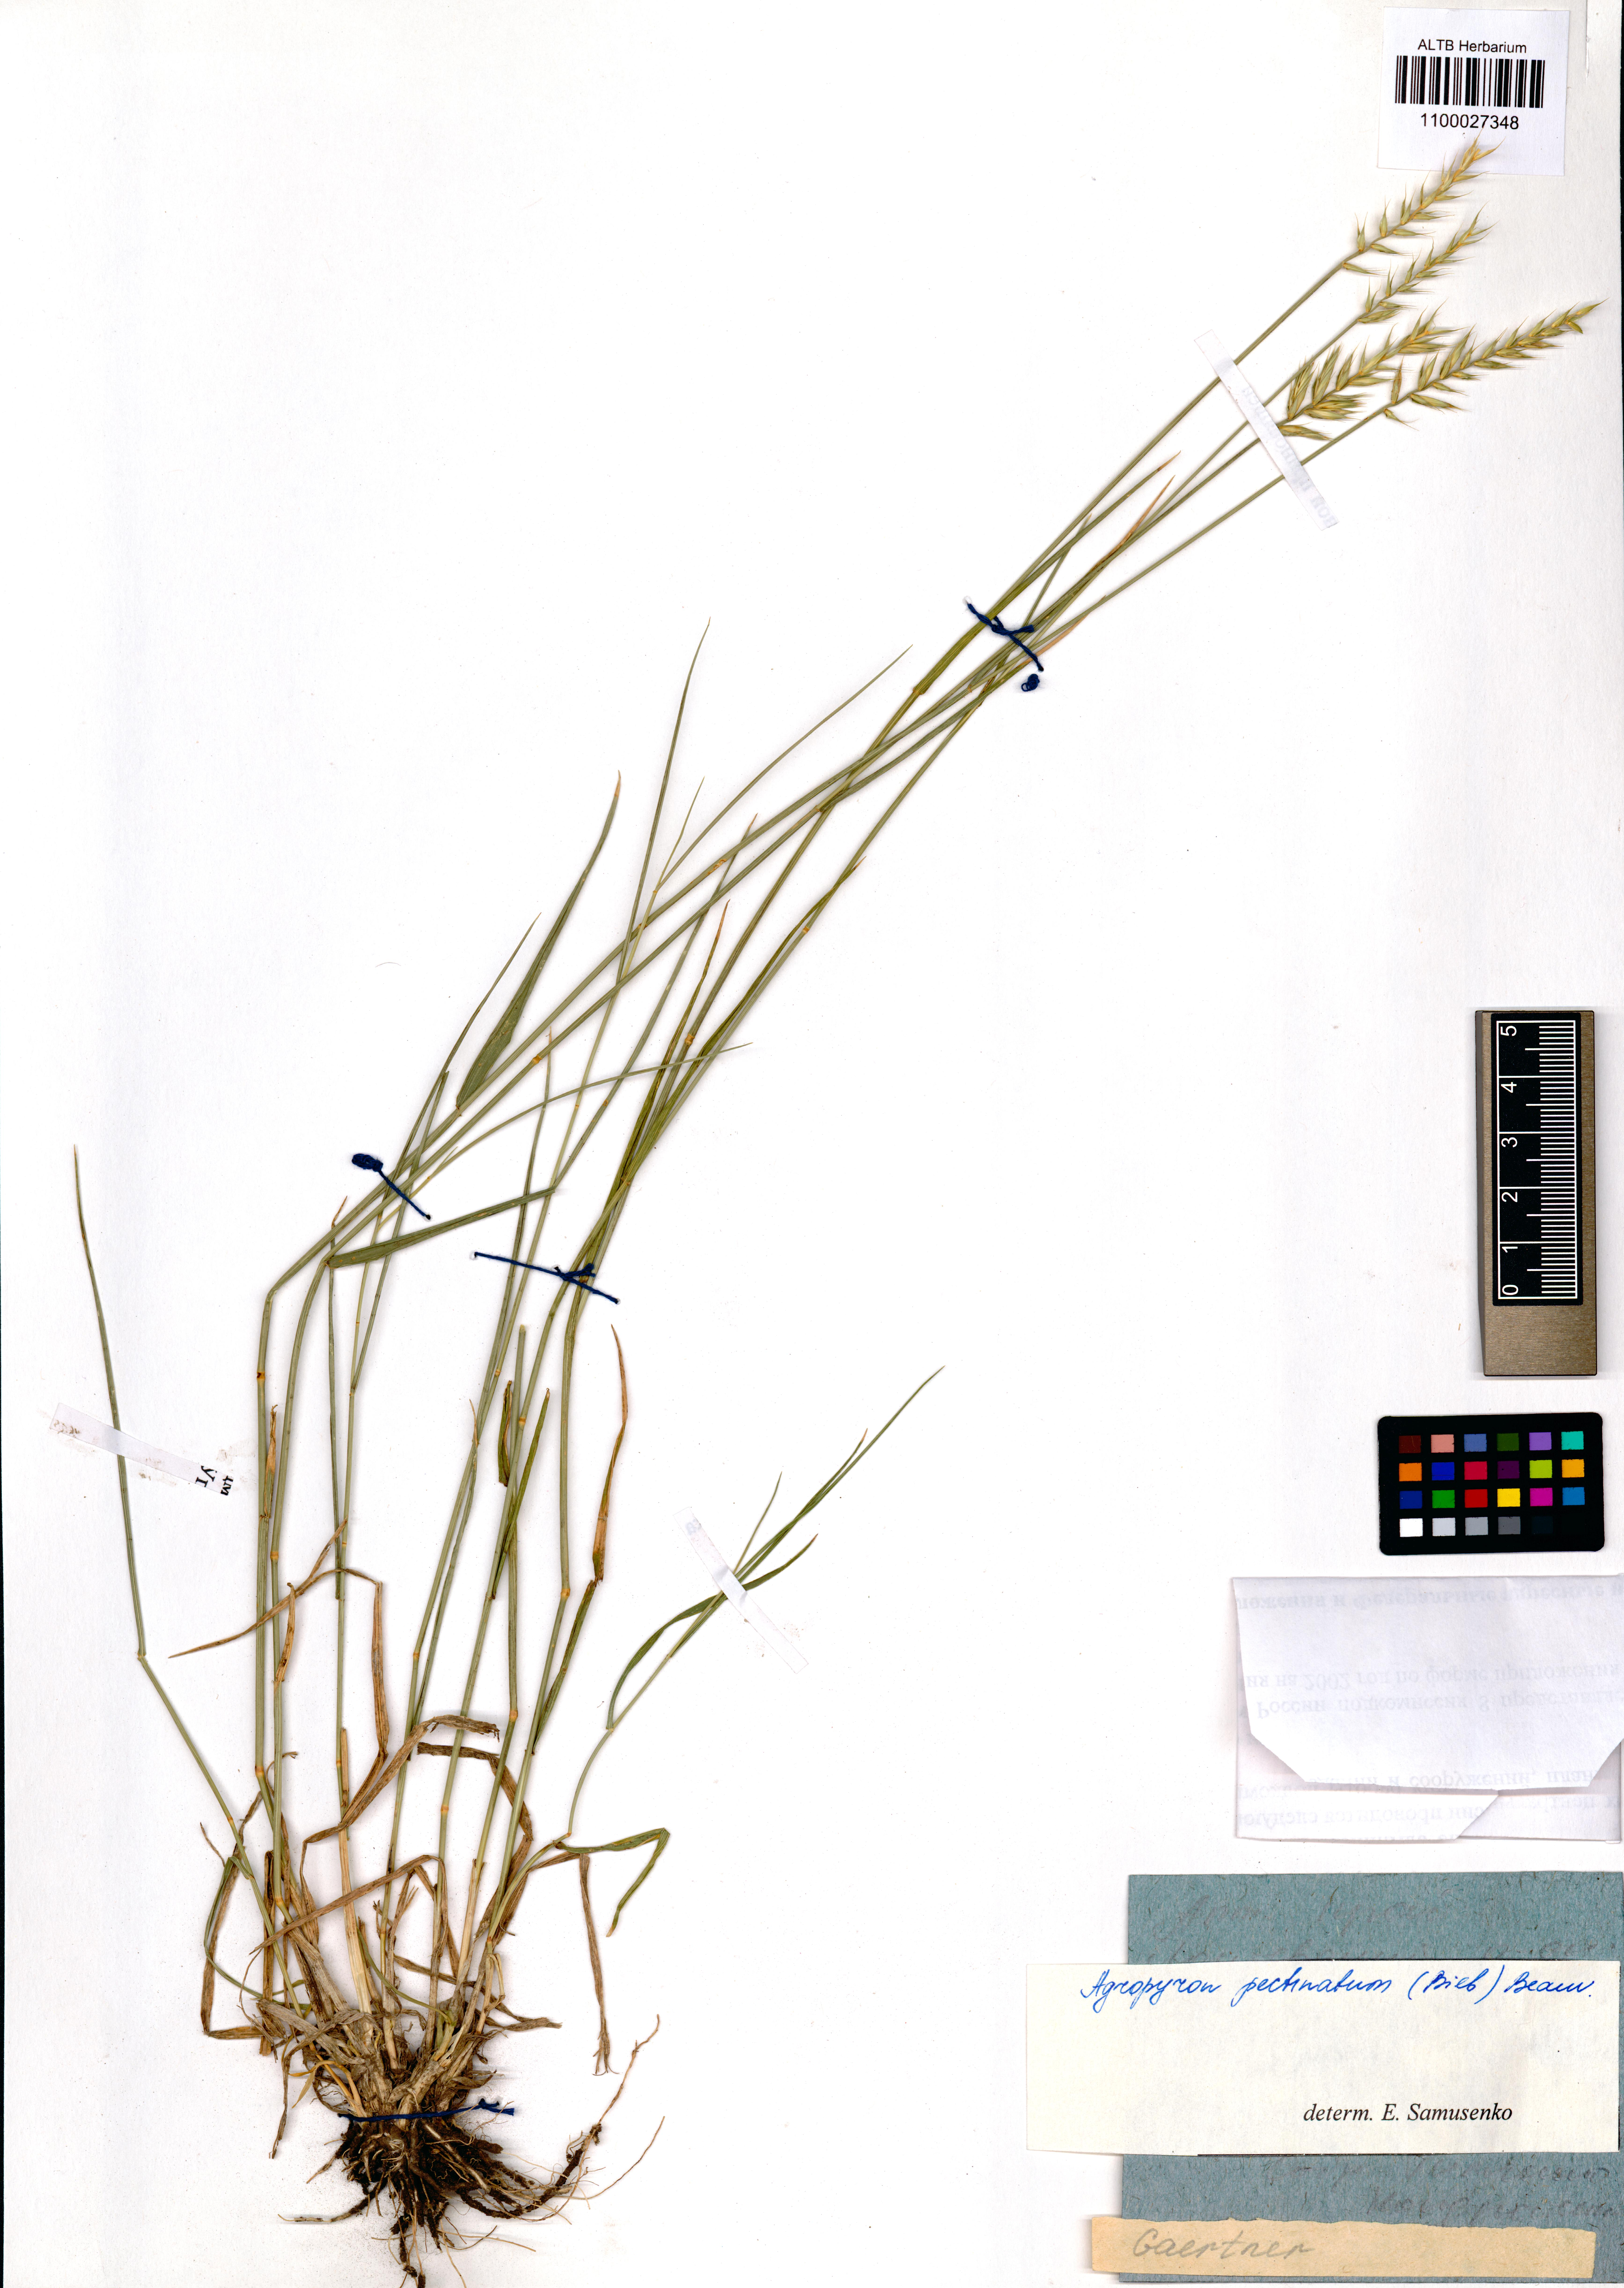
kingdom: Plantae
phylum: Tracheophyta
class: Liliopsida
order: Poales
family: Poaceae
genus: Agropyron
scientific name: Agropyron cristatum
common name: Crested wheatgrass
